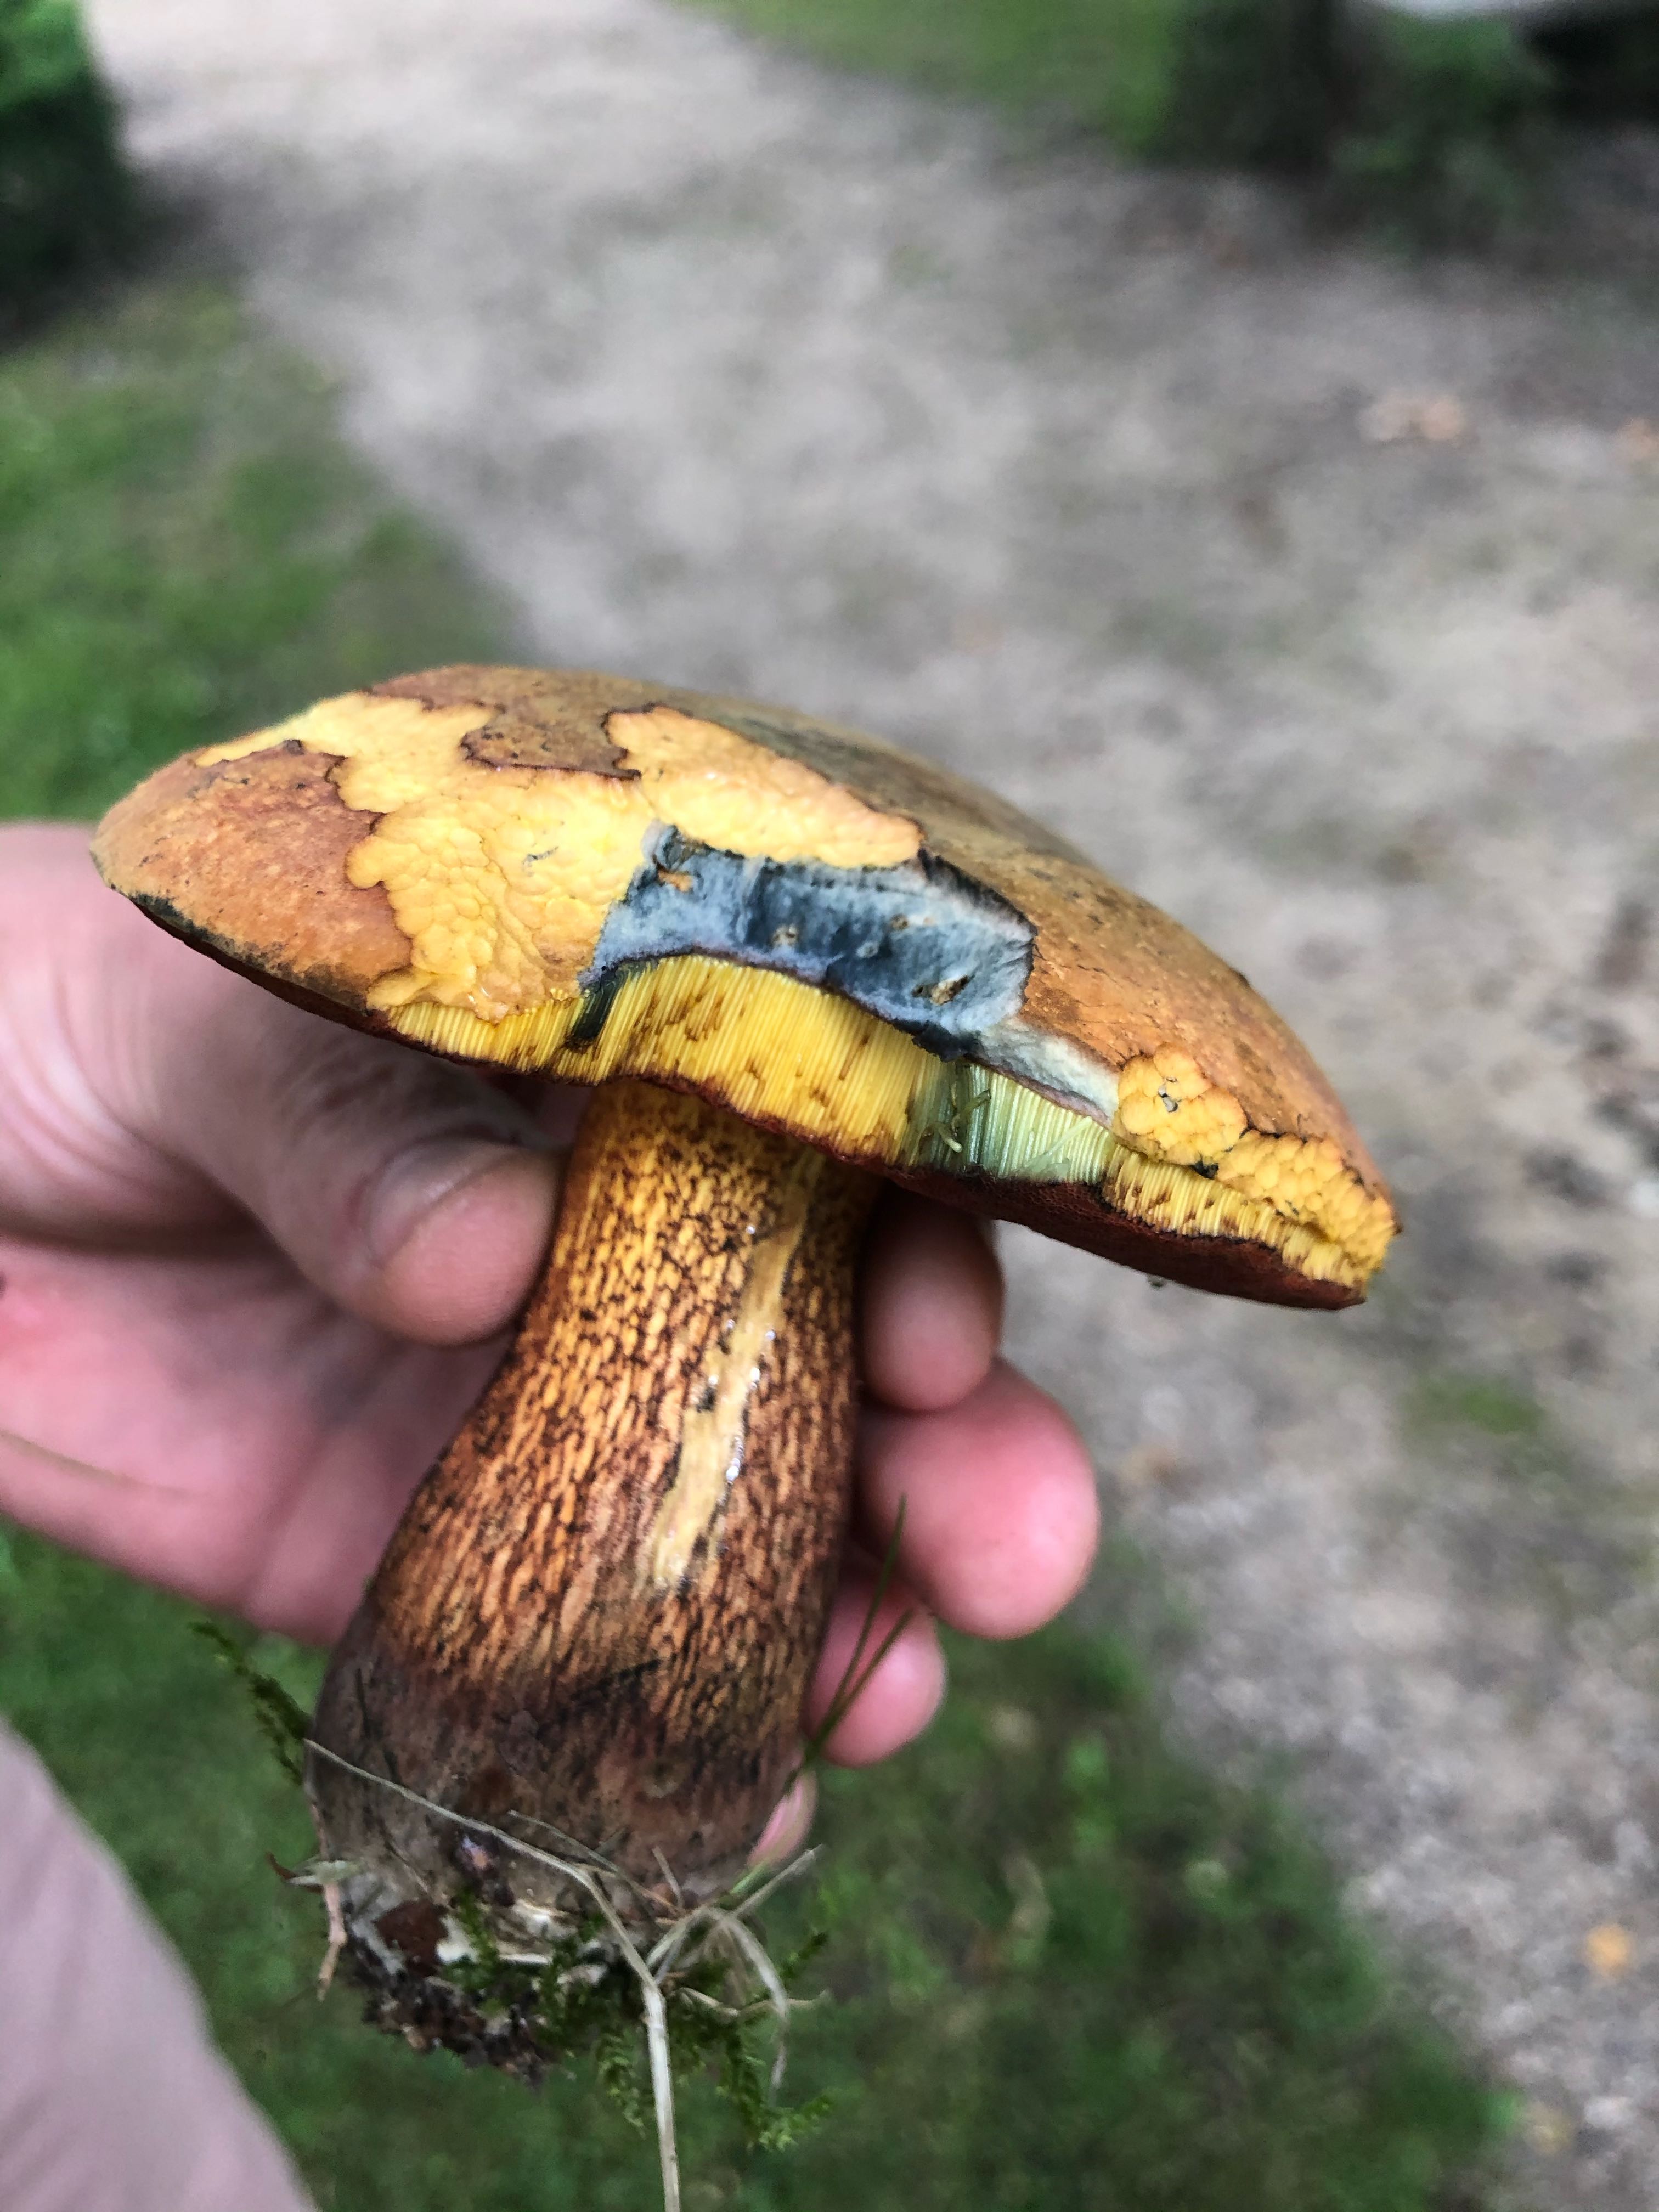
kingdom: Fungi
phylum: Basidiomycota
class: Agaricomycetes
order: Boletales
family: Boletaceae
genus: Suillellus
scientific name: Suillellus luridus
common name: netstokket indigorørhat
